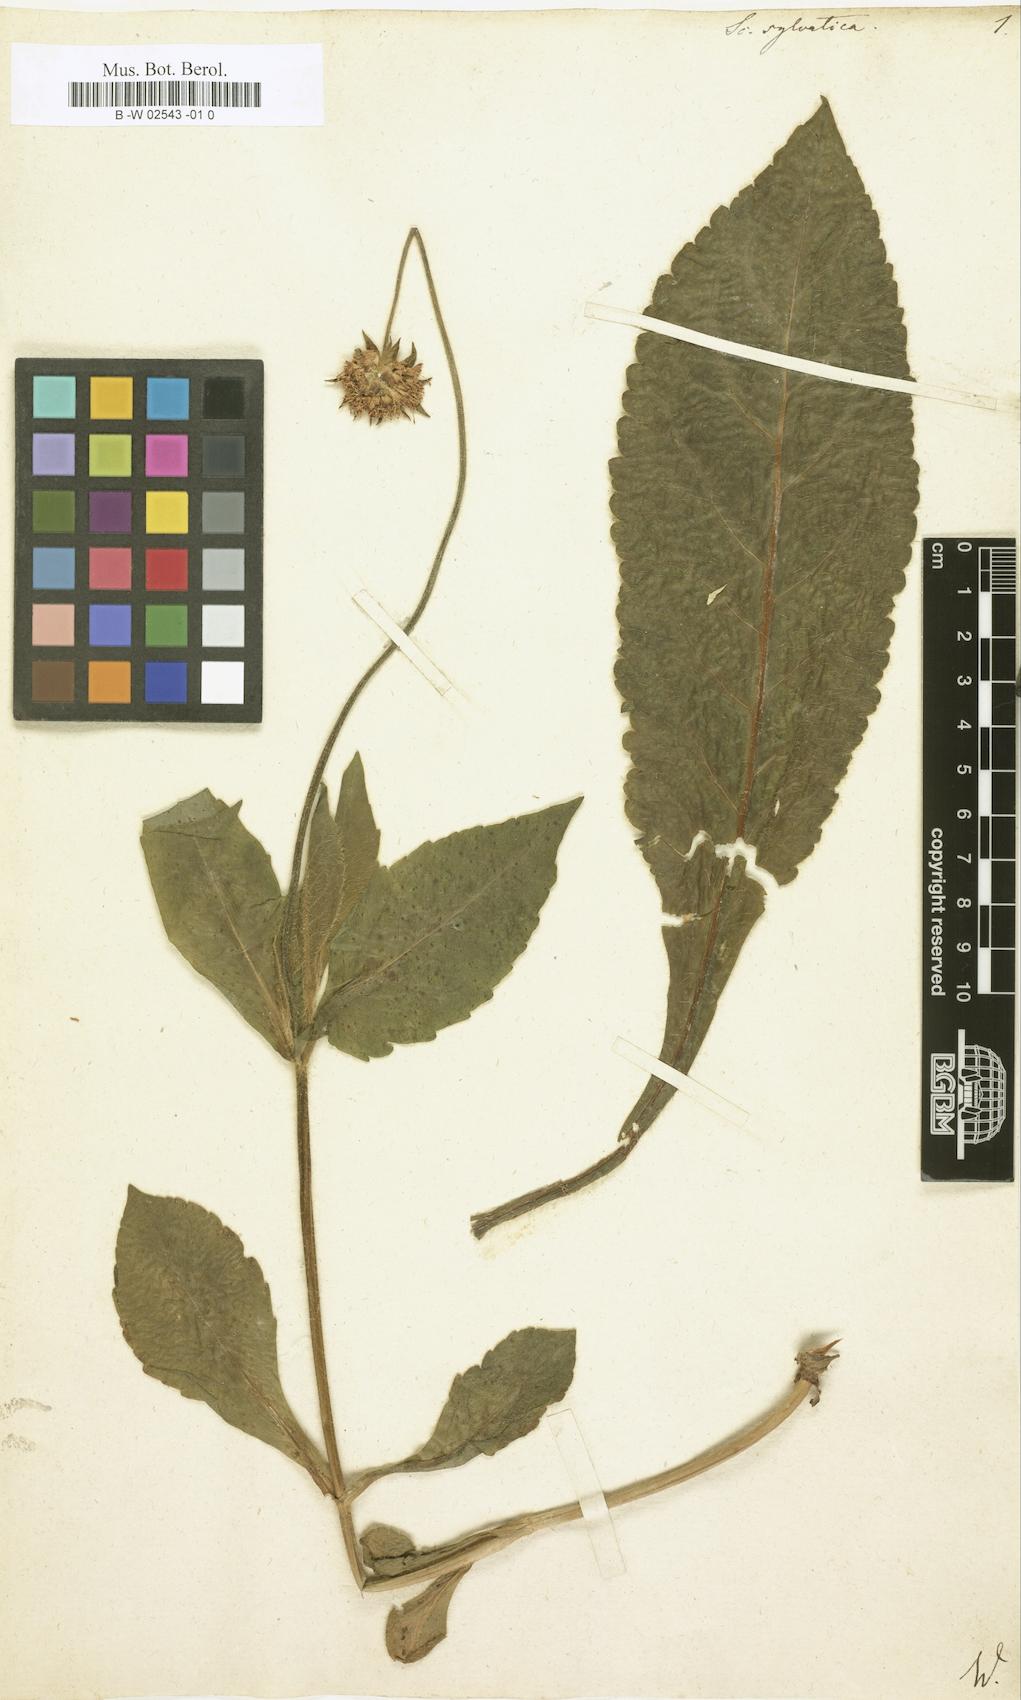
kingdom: Plantae
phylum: Tracheophyta
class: Magnoliopsida
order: Dipsacales
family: Caprifoliaceae
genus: Knautia
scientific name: Knautia drymeia
